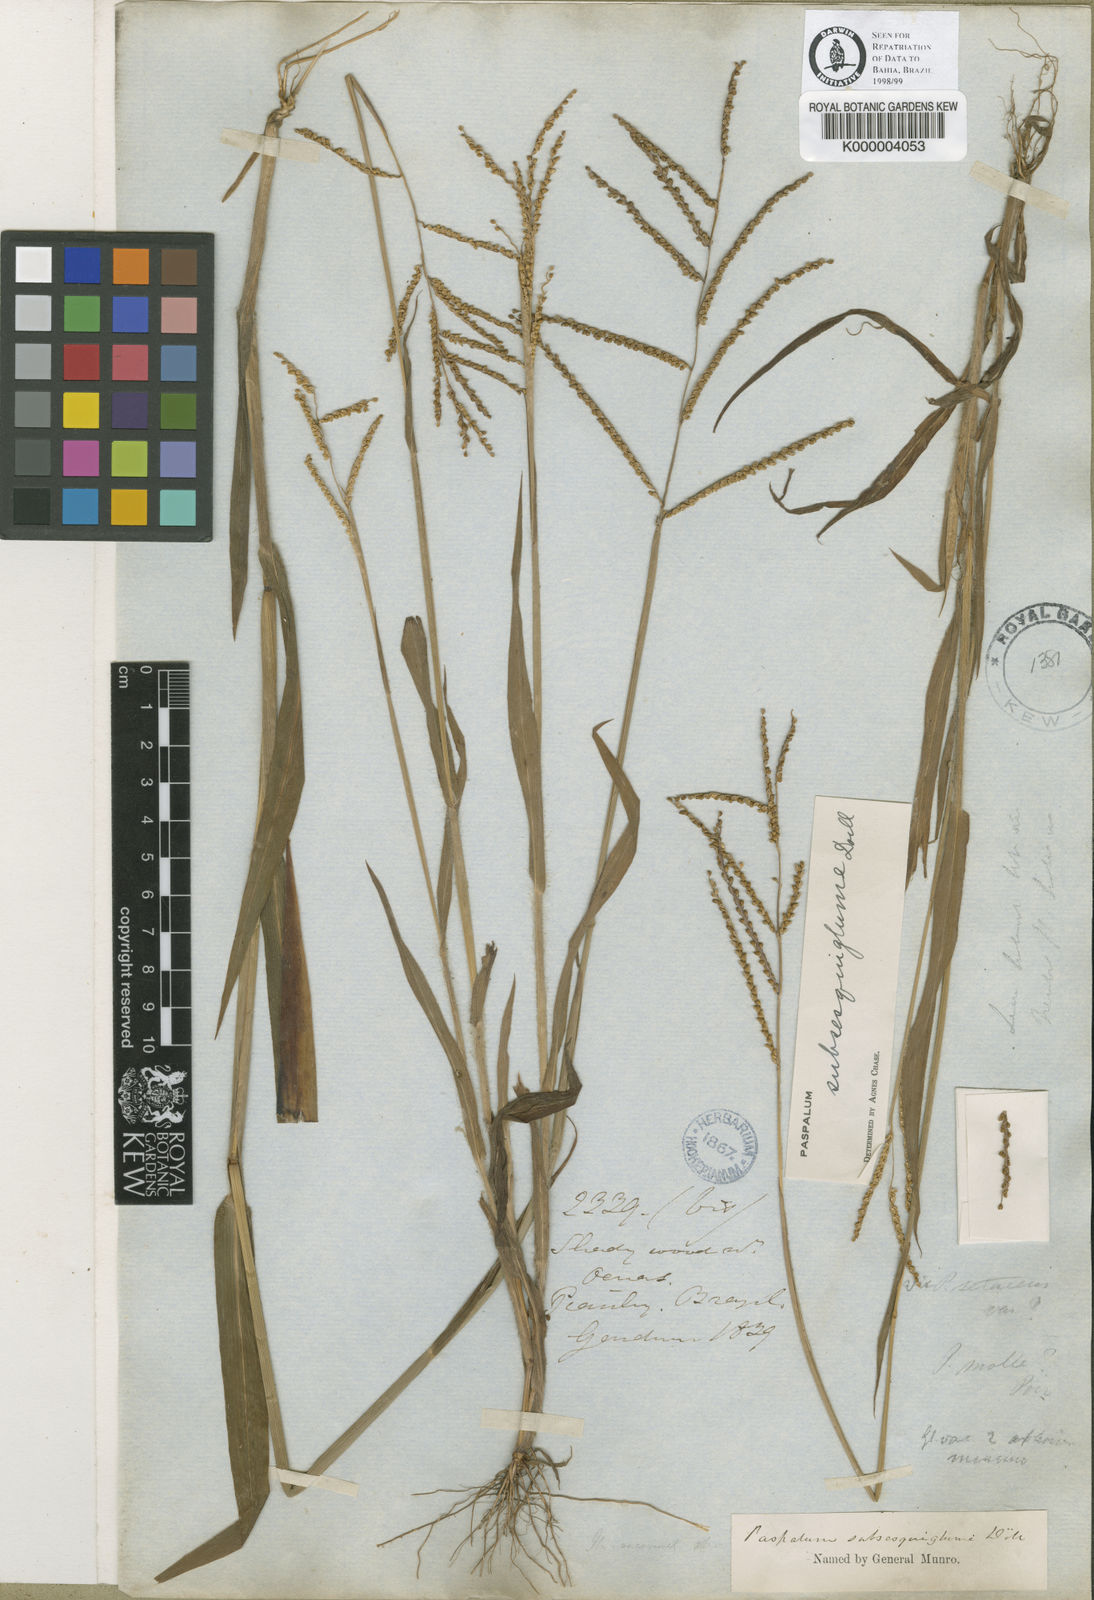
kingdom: Plantae
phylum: Tracheophyta
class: Liliopsida
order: Poales
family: Poaceae
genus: Paspalum
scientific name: Paspalum
